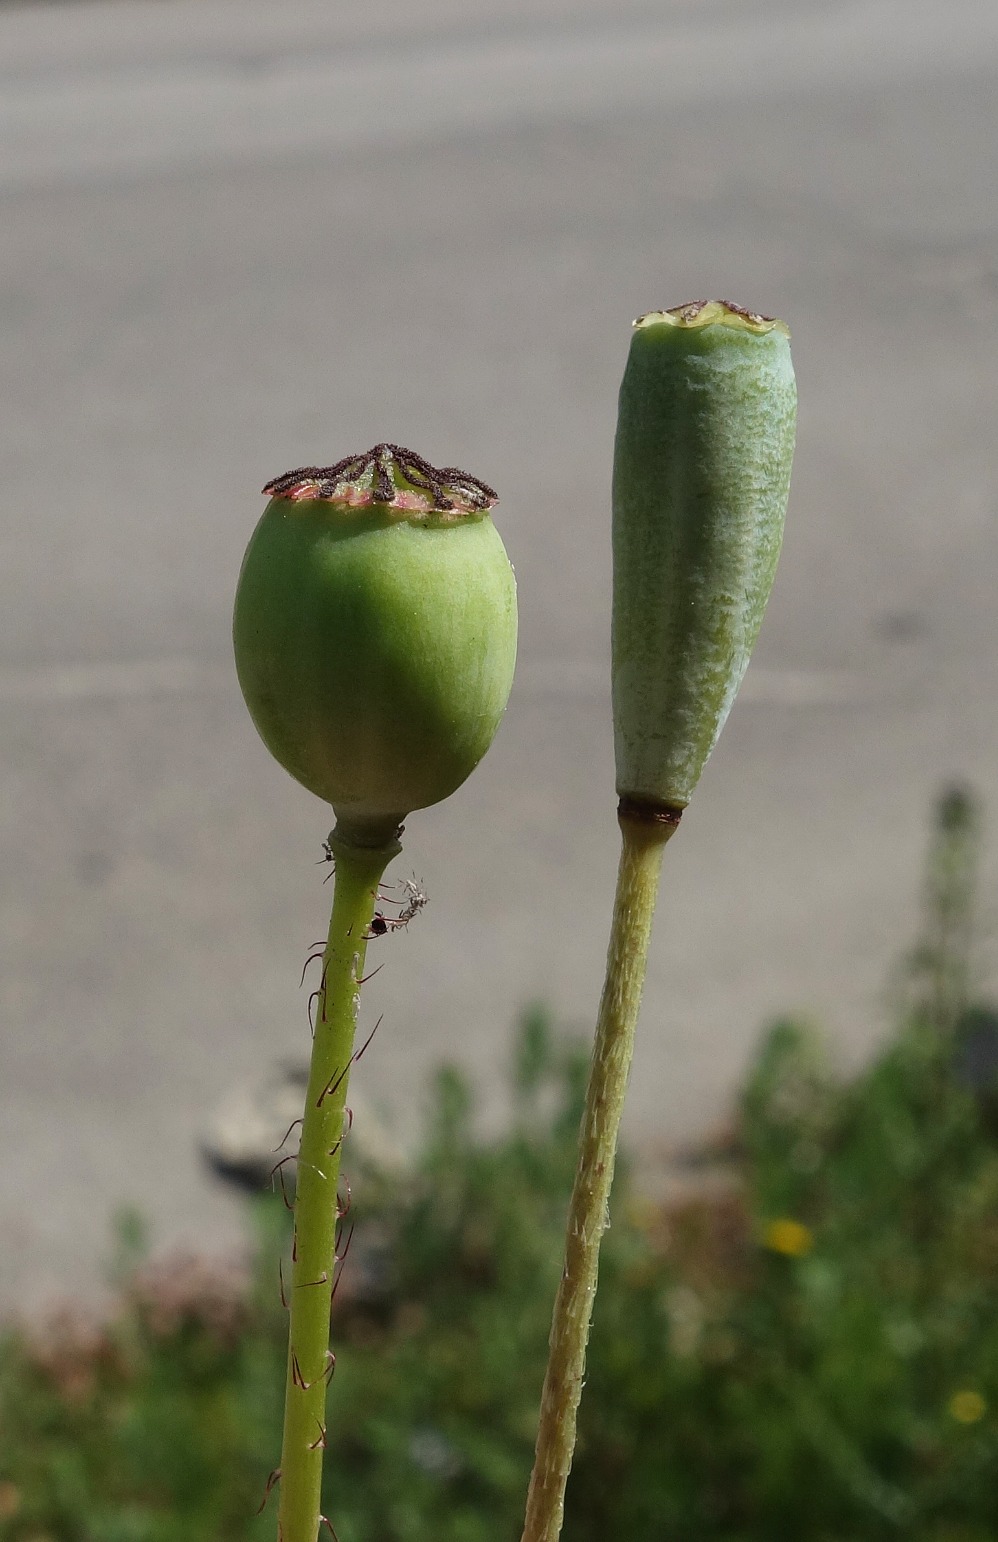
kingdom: Plantae
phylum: Tracheophyta
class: Magnoliopsida
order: Ranunculales
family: Papaveraceae
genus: Papaver
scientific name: Papaver rhoeas
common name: Korn-valmue
